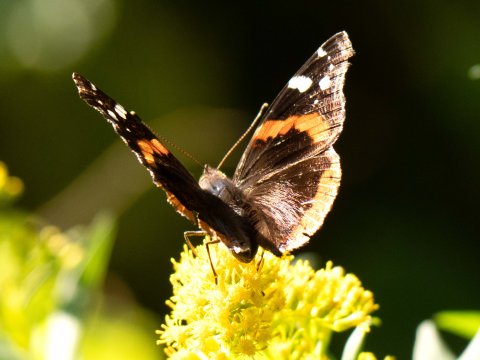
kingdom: Animalia
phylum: Arthropoda
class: Insecta
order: Lepidoptera
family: Nymphalidae
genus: Vanessa
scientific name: Vanessa atalanta
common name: Red Admiral
